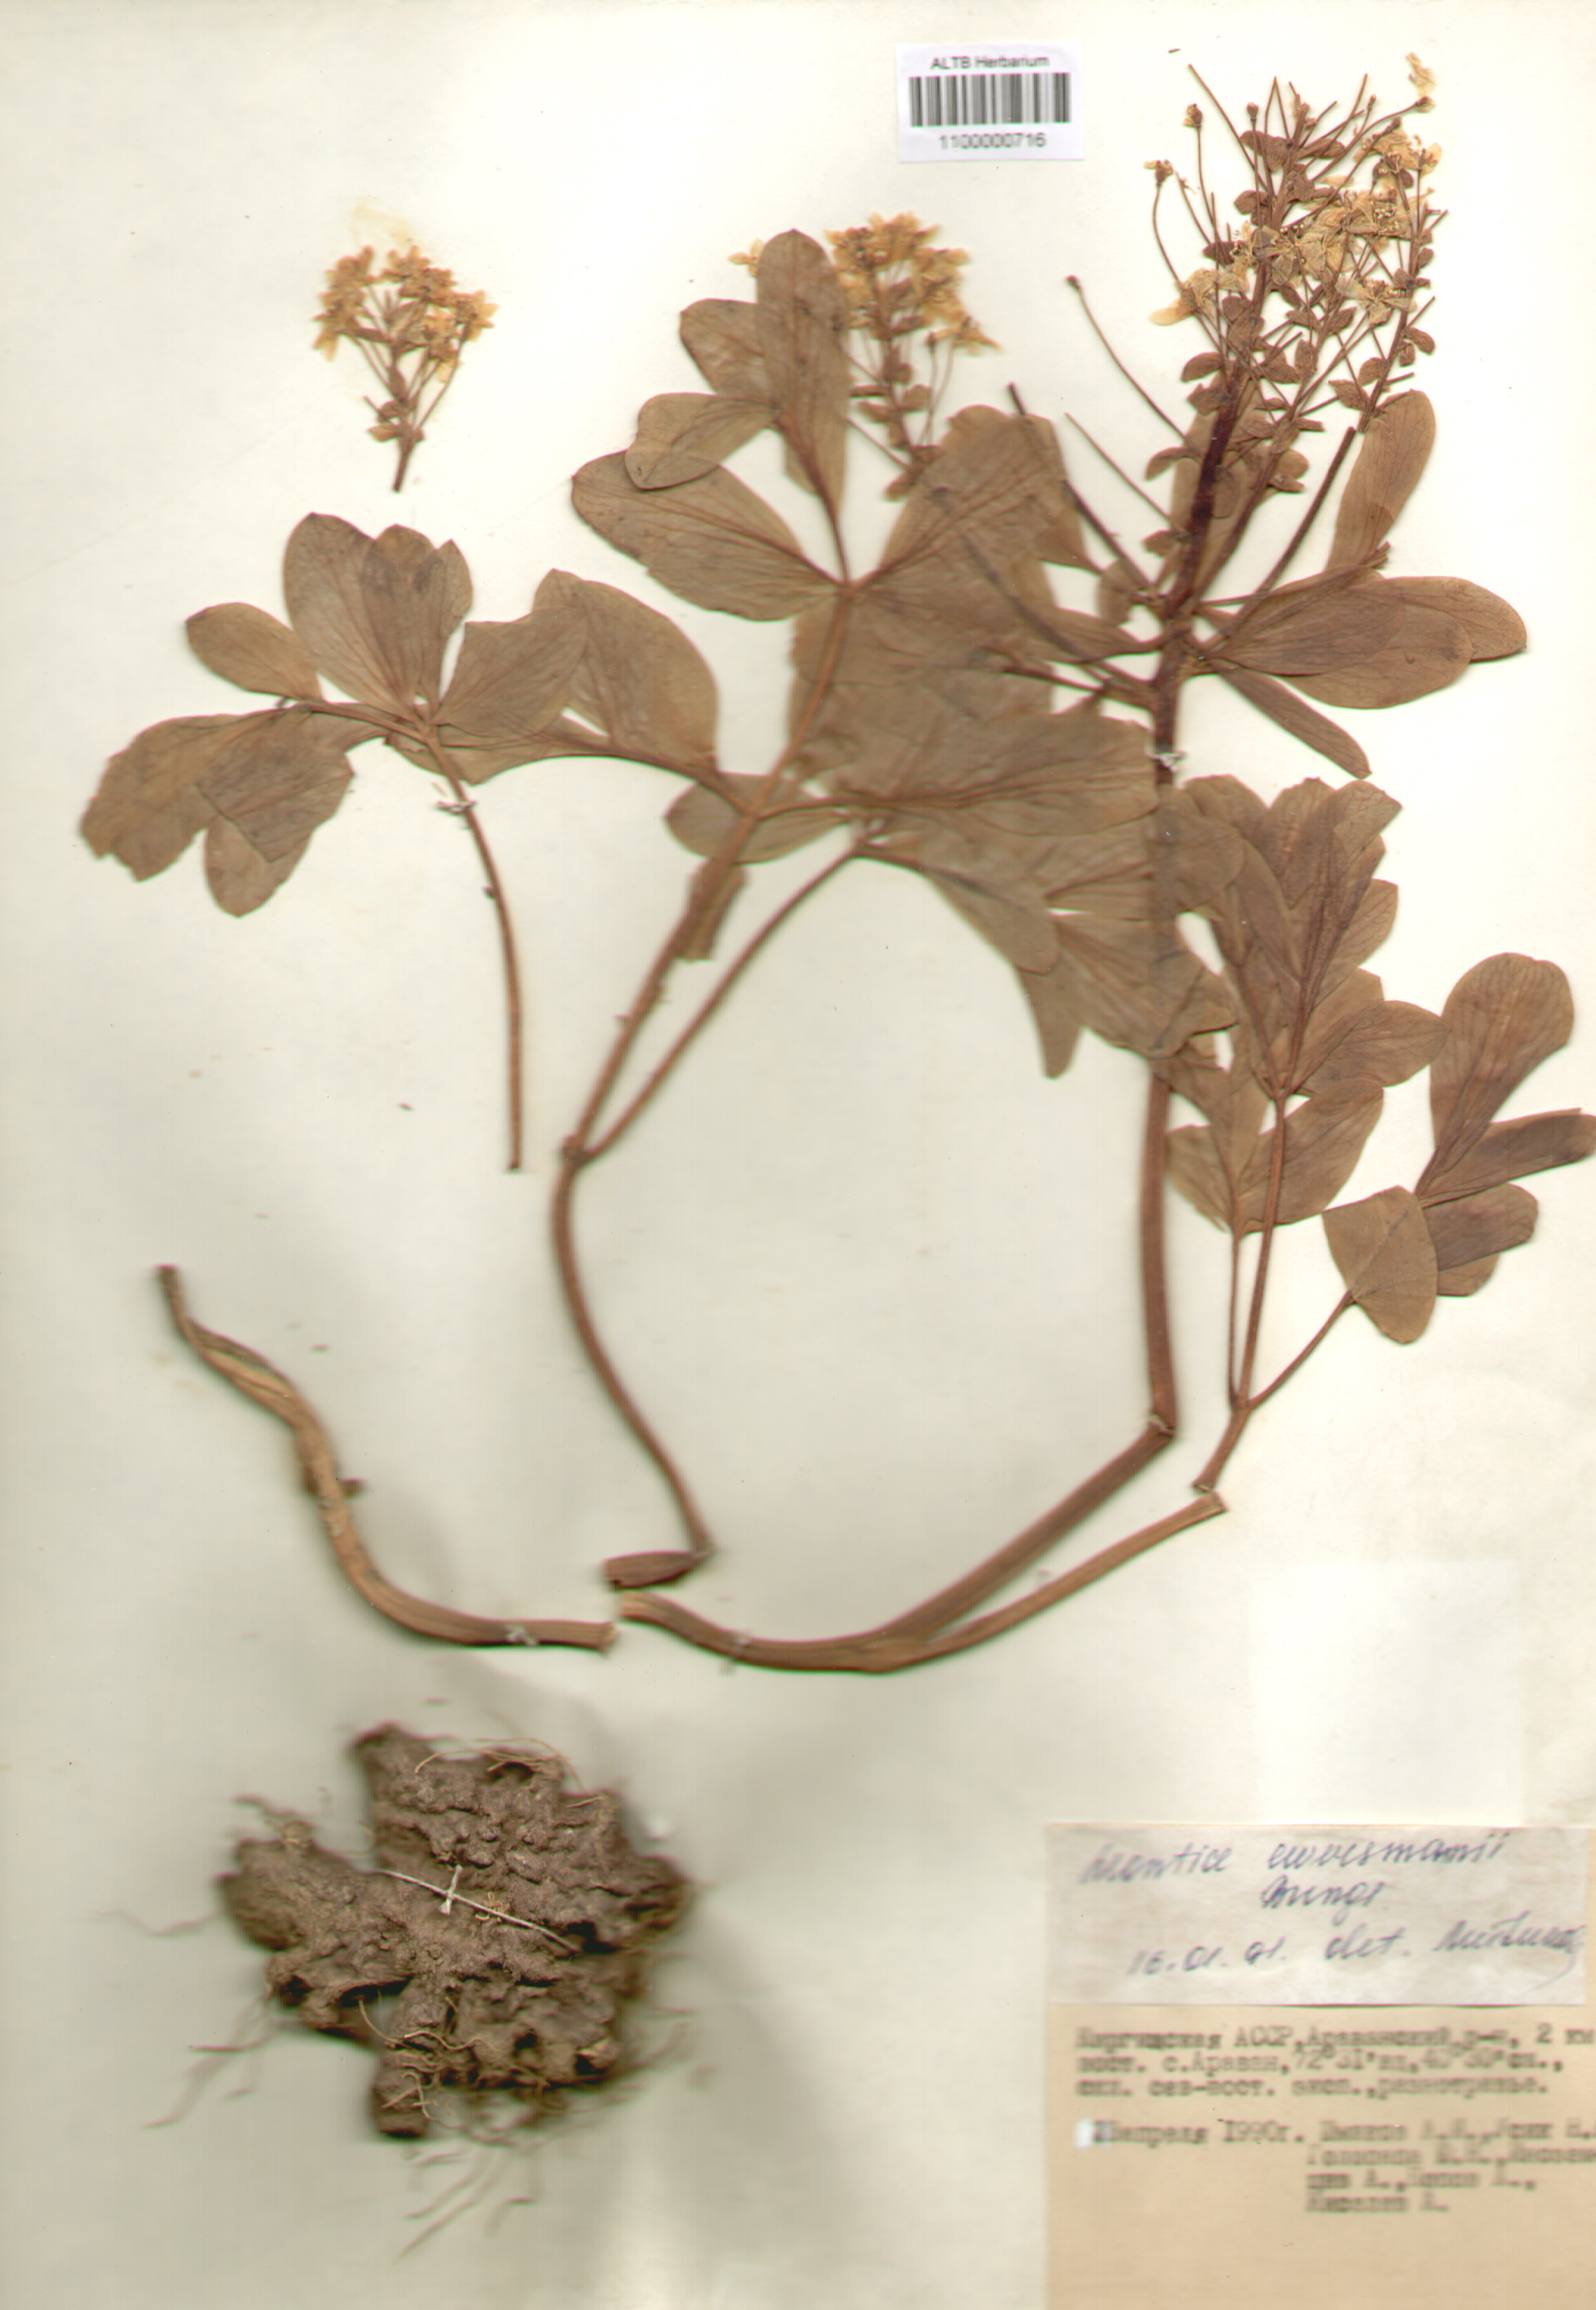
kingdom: Plantae
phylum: Tracheophyta
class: Magnoliopsida
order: Ranunculales
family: Berberidaceae
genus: Leontice
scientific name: Leontice leontopetalum
